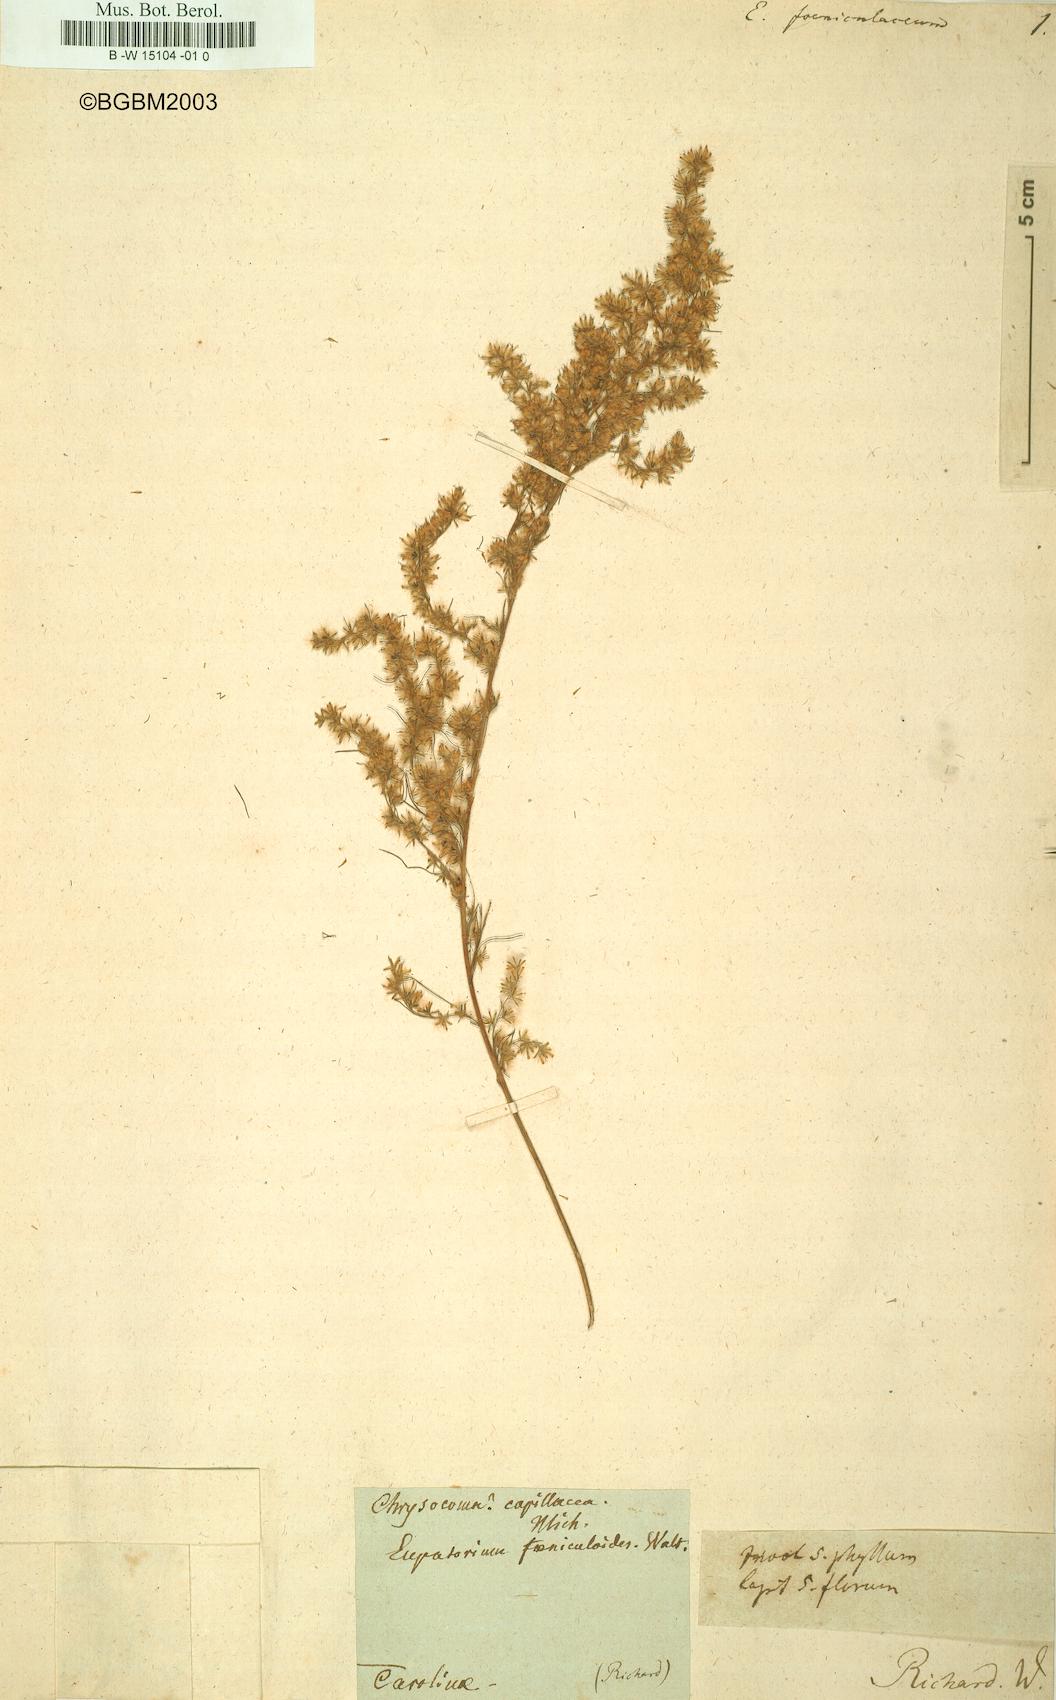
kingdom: Plantae
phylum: Tracheophyta
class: Magnoliopsida
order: Asterales
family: Asteraceae
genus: Eupatorium
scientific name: Eupatorium capillifolium
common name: Dog-fennel
